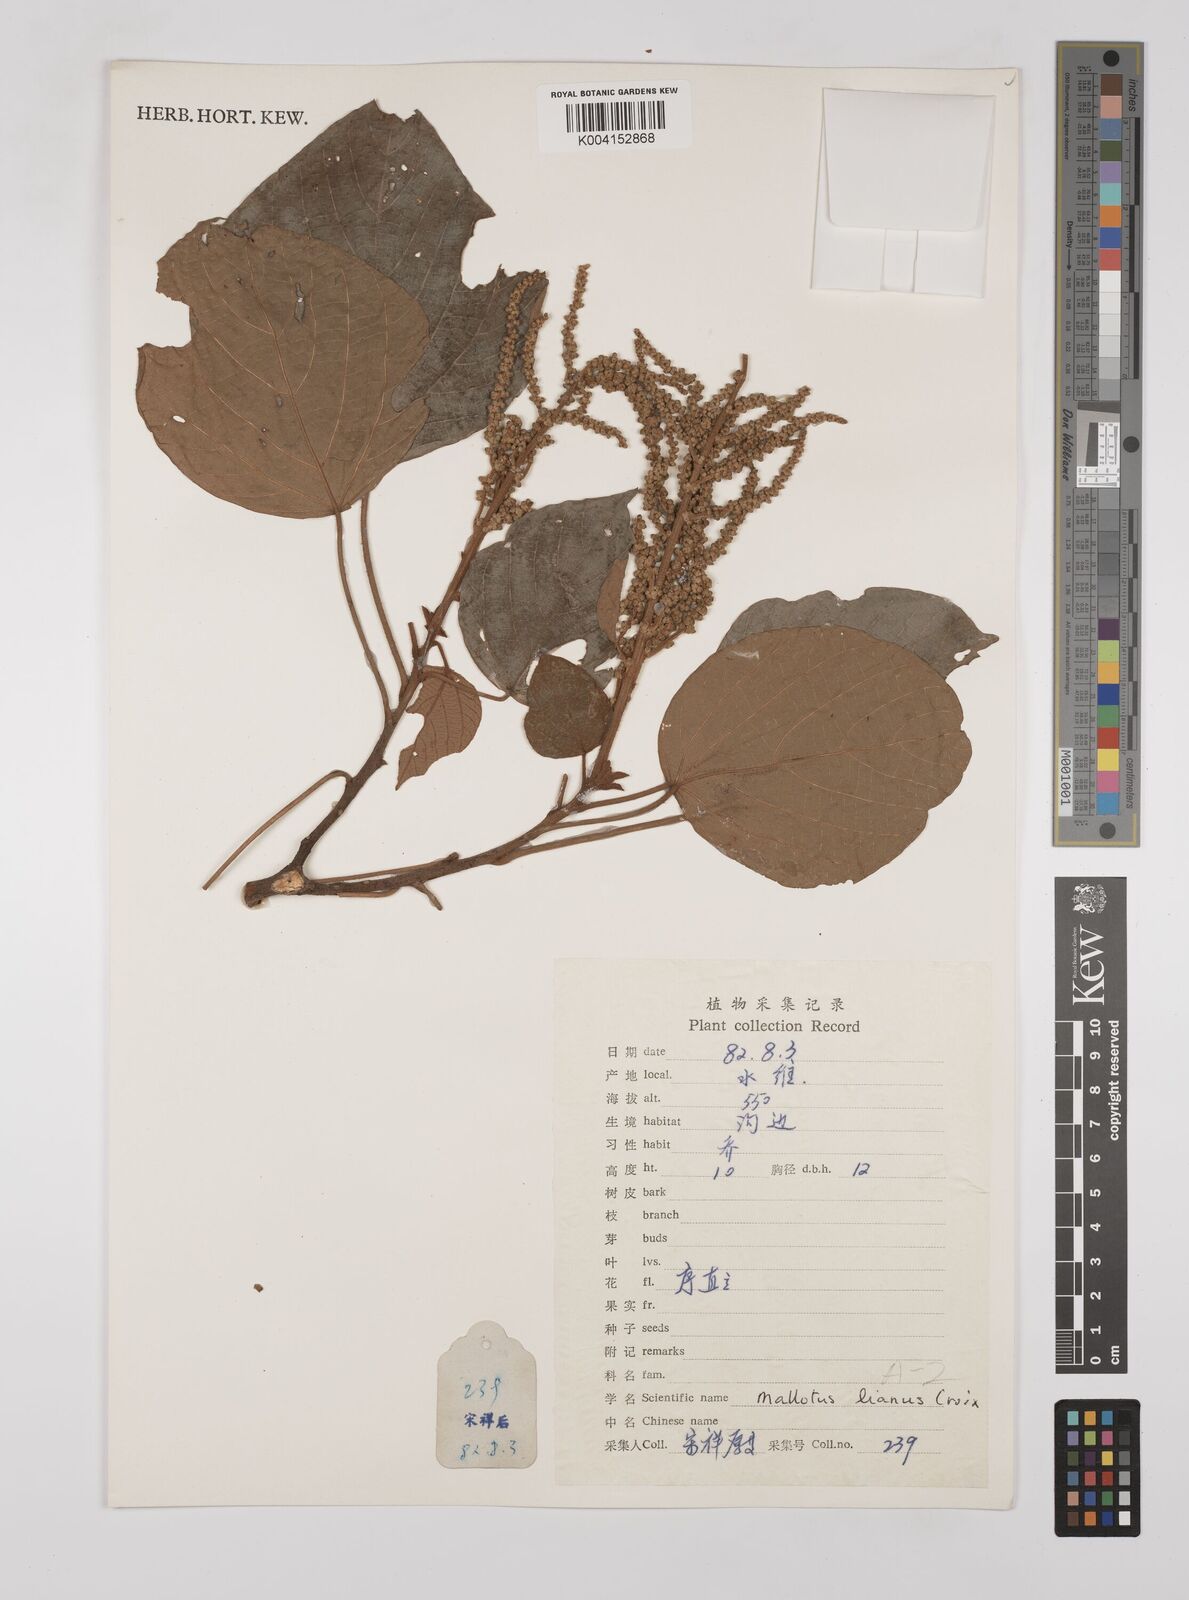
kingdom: Plantae
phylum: Tracheophyta
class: Magnoliopsida
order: Malpighiales
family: Euphorbiaceae
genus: Mallotus
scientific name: Mallotus lianus
